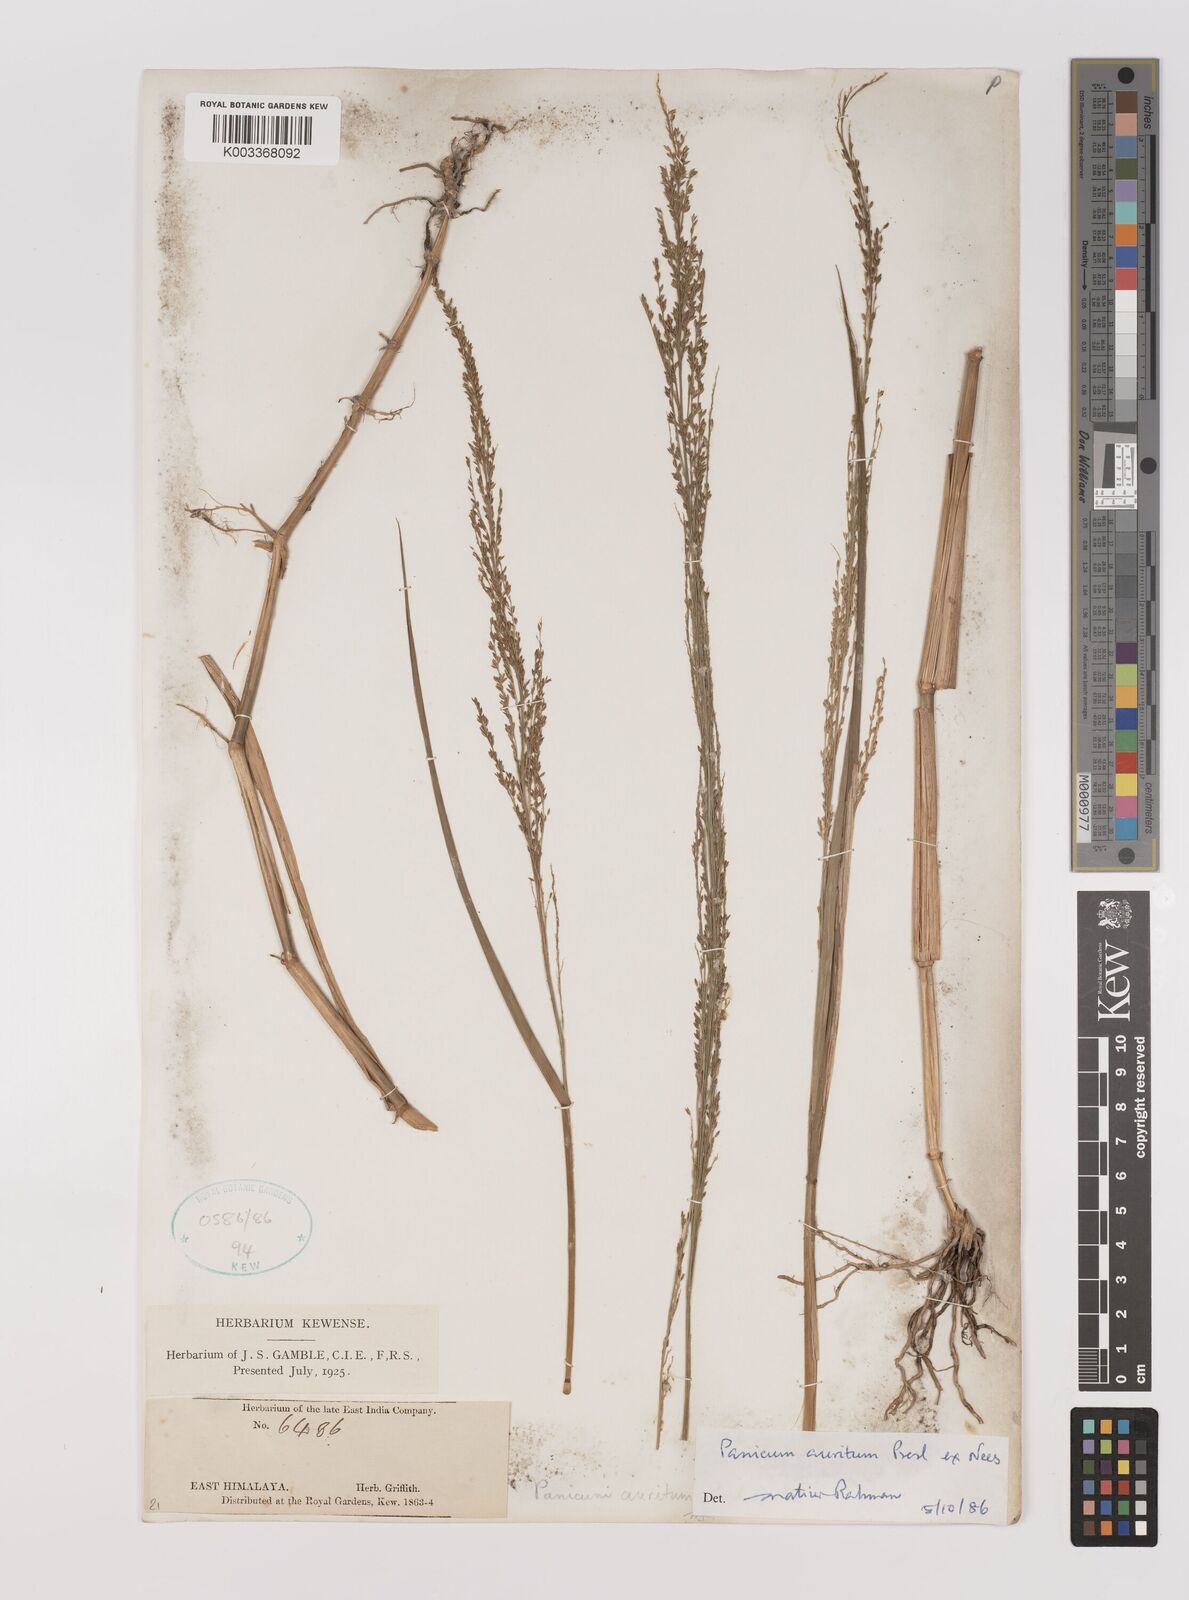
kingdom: Plantae
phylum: Tracheophyta
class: Liliopsida
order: Poales
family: Poaceae
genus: Hymenachne
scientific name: Hymenachne aurita
